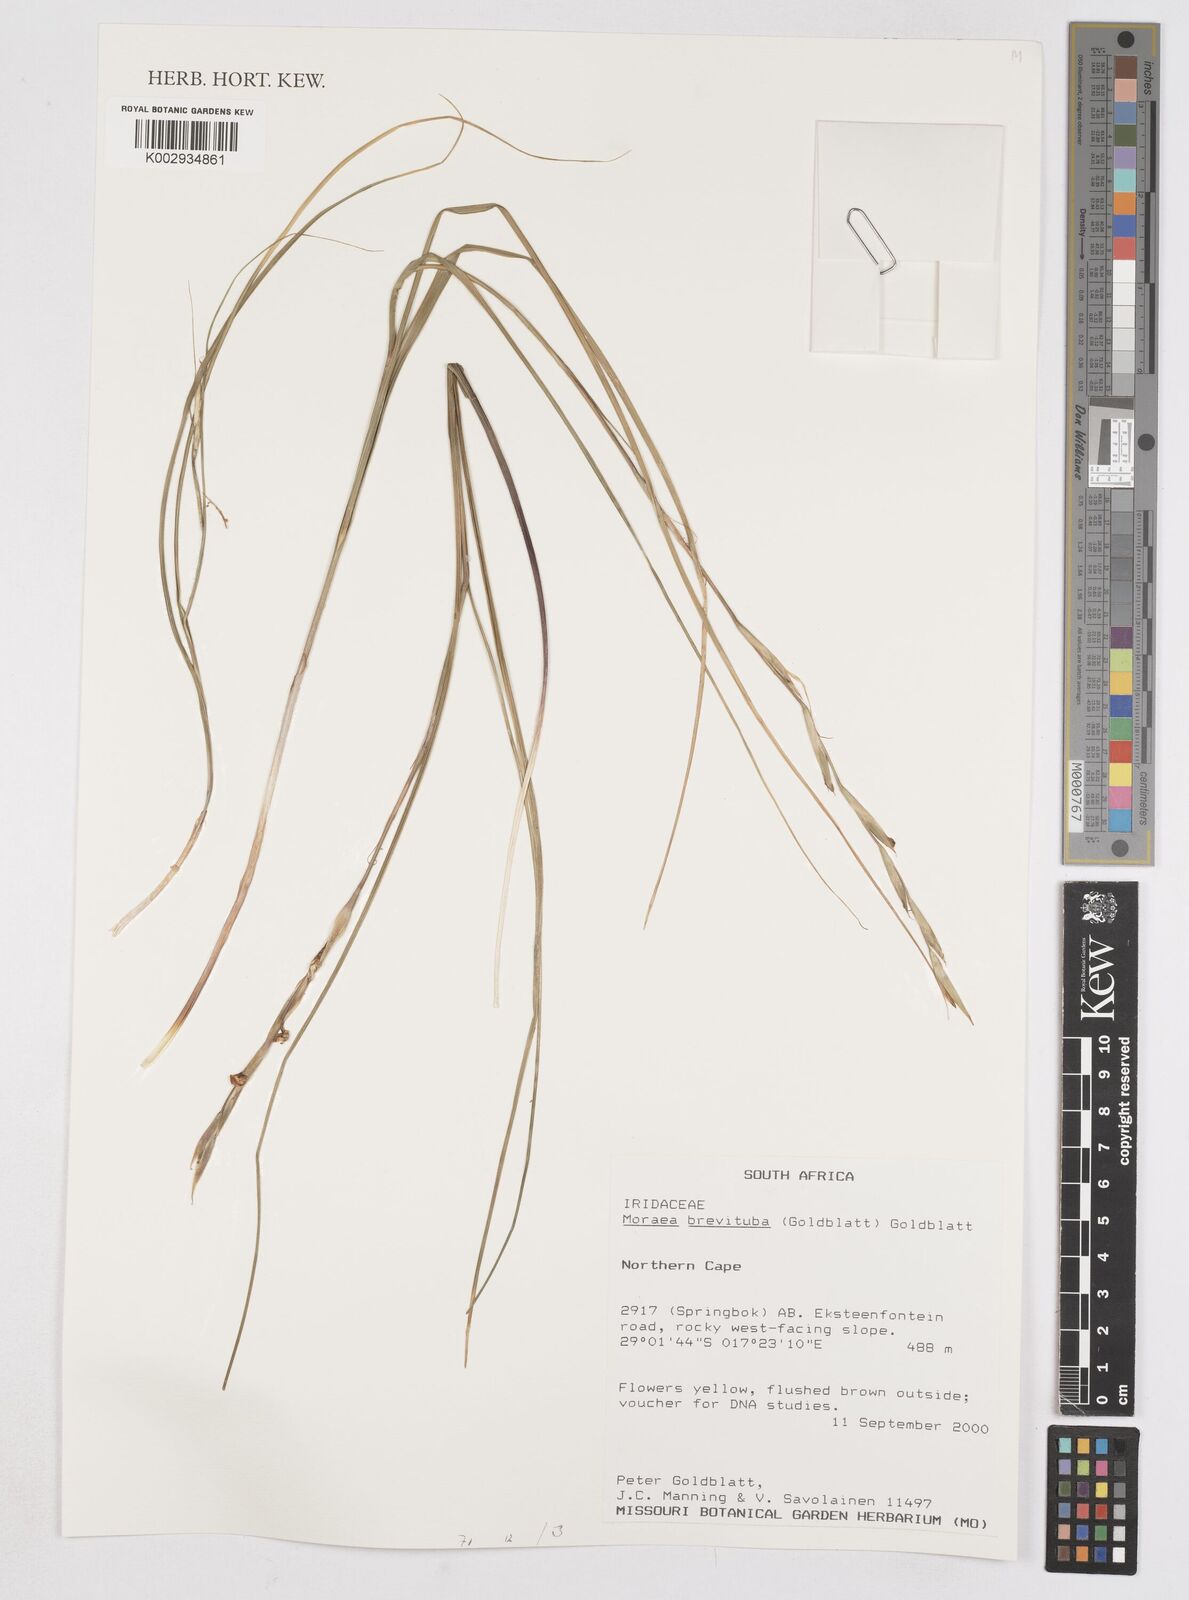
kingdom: Plantae
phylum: Tracheophyta
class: Liliopsida
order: Asparagales
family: Iridaceae
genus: Moraea
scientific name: Moraea brevituba
